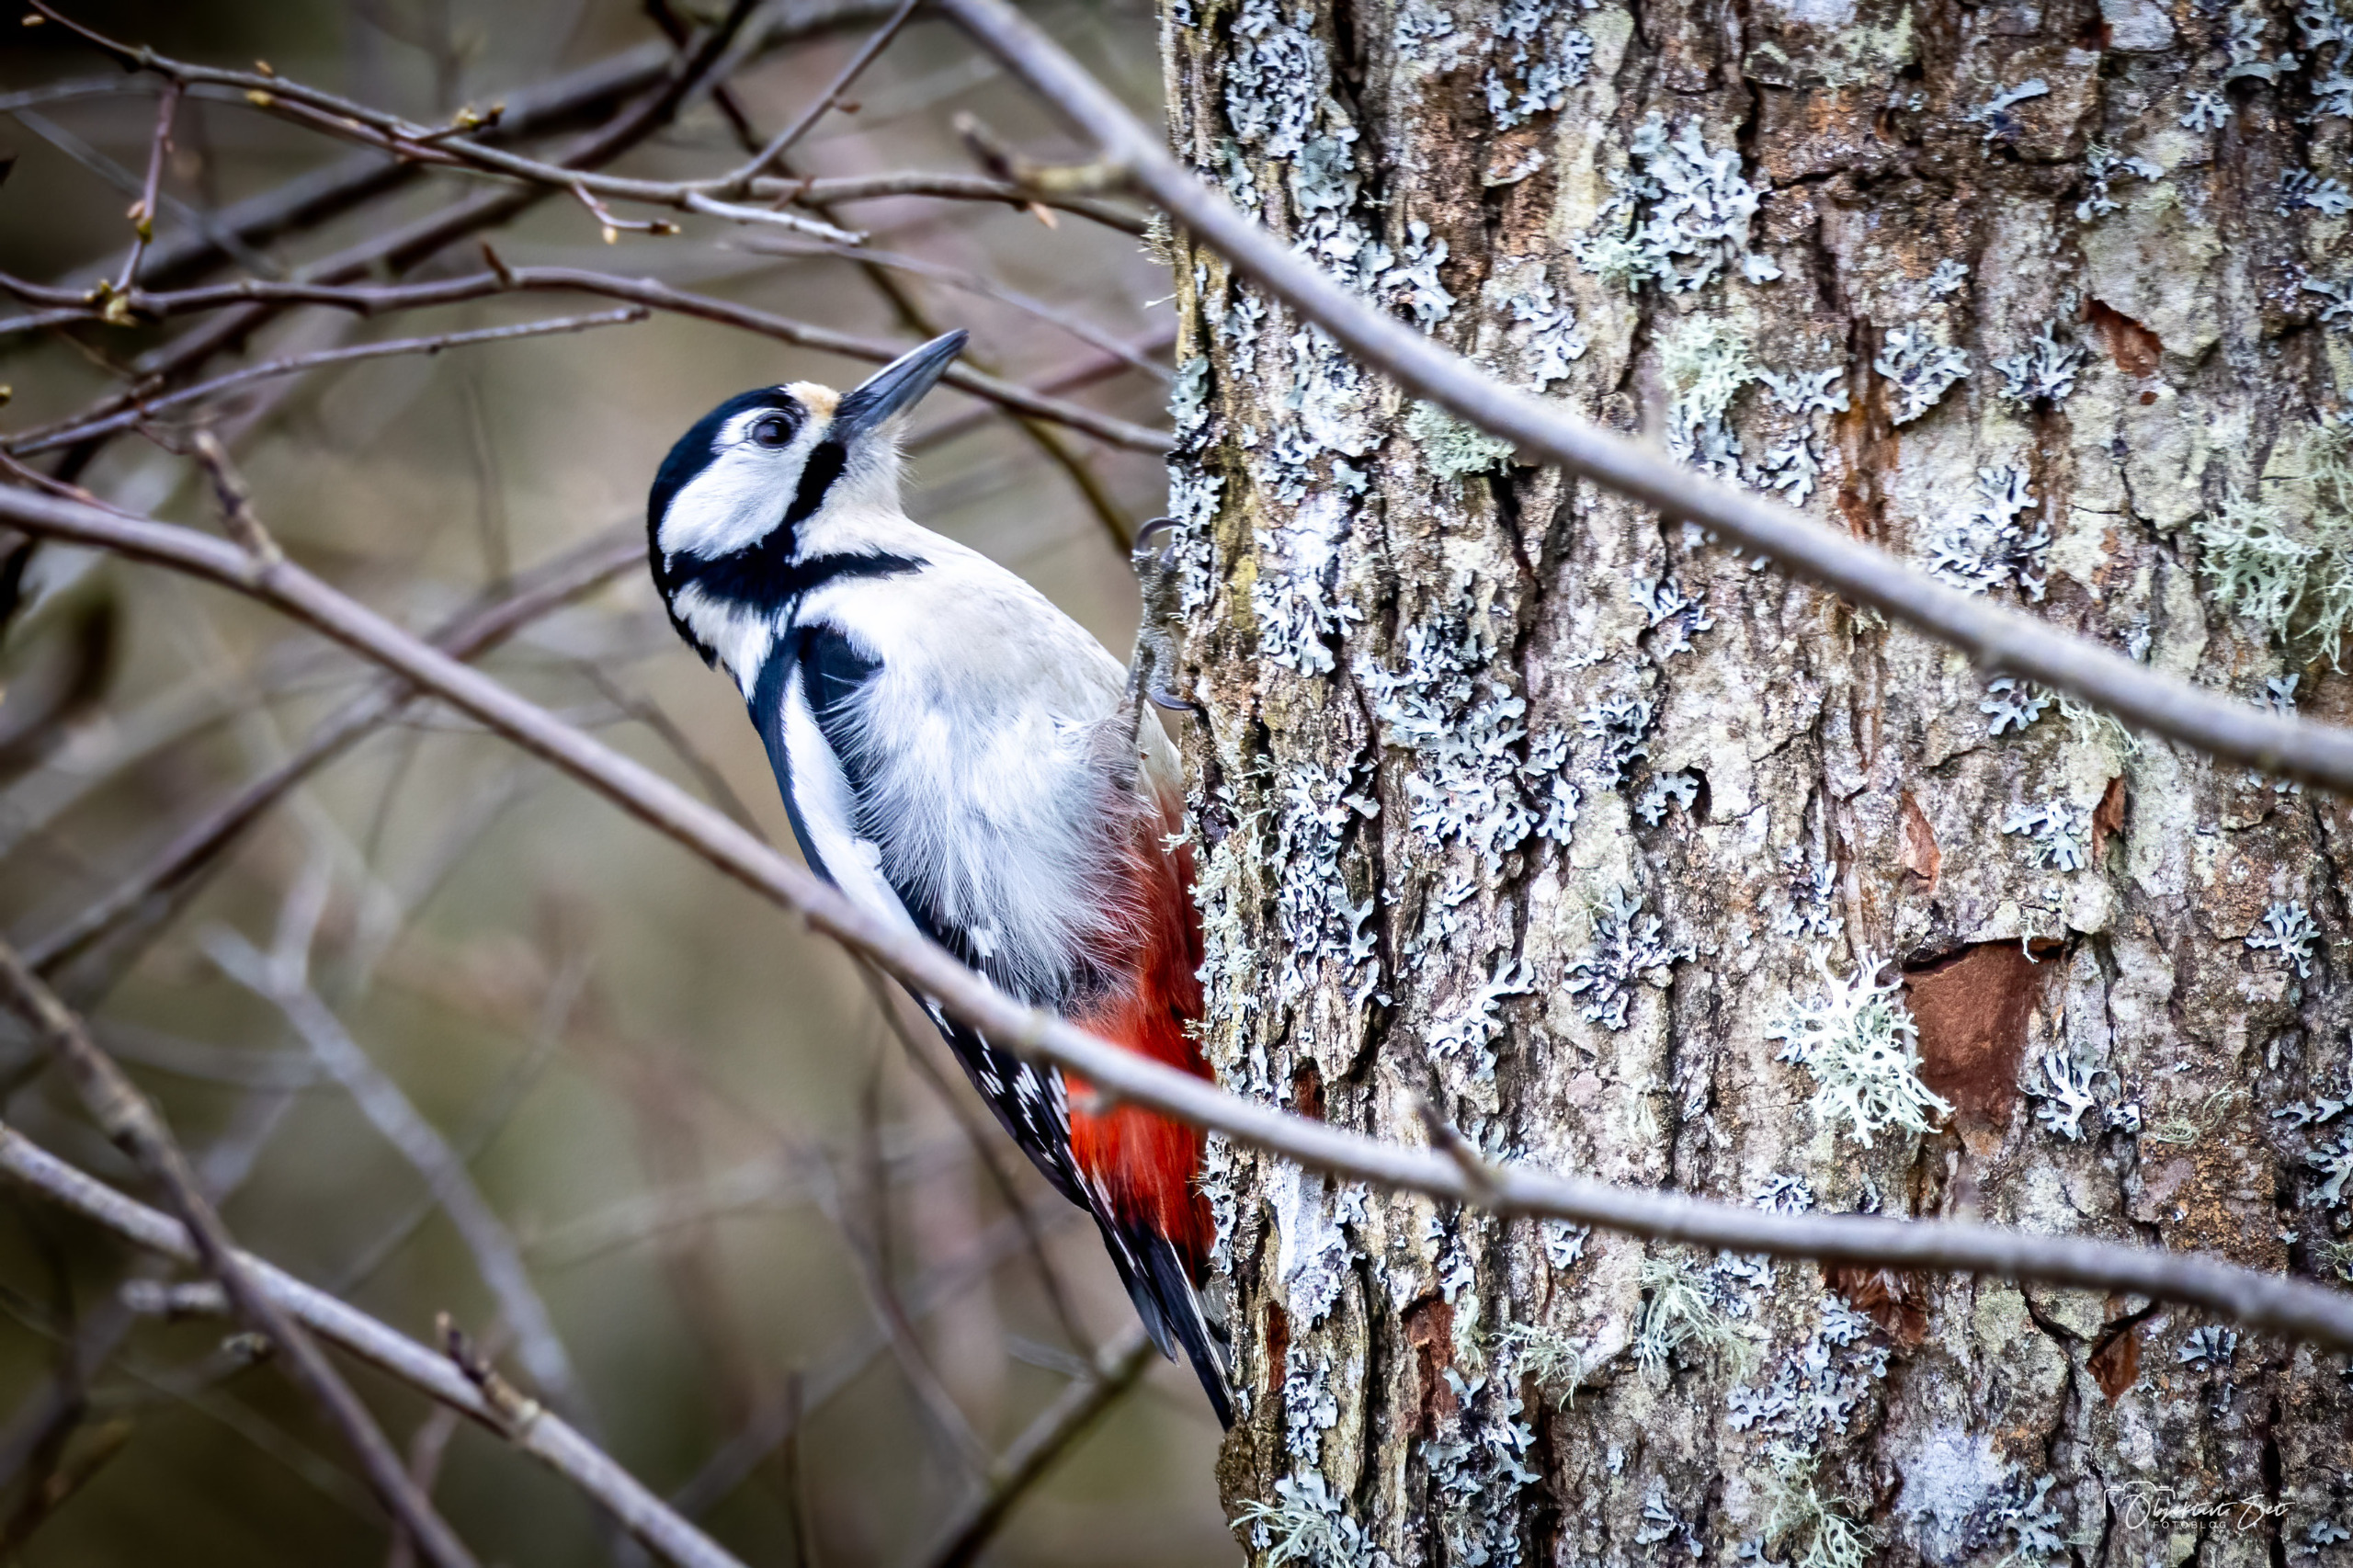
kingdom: Animalia
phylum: Chordata
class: Aves
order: Piciformes
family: Picidae
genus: Dendrocopos
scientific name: Dendrocopos major
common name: Stor flagspætte
